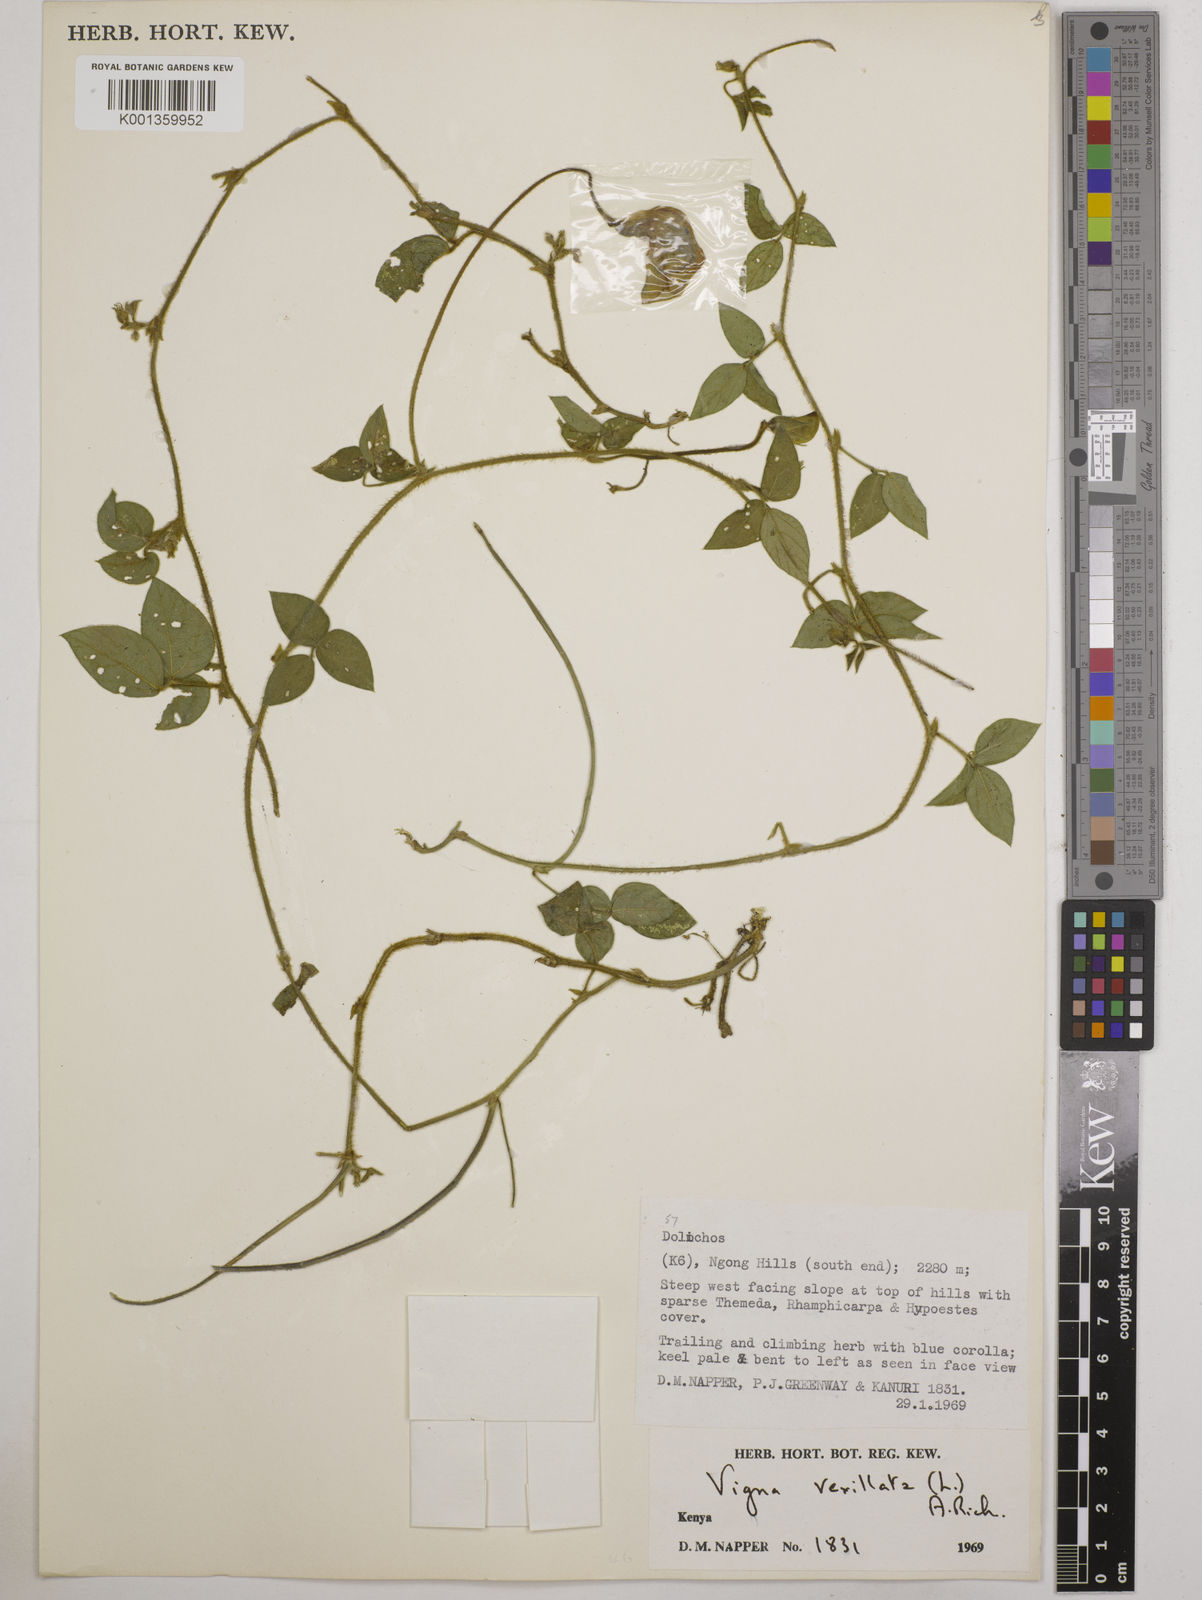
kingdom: Plantae
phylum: Tracheophyta
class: Magnoliopsida
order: Fabales
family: Fabaceae
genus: Vigna
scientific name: Vigna vexillata
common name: Zombi pea
